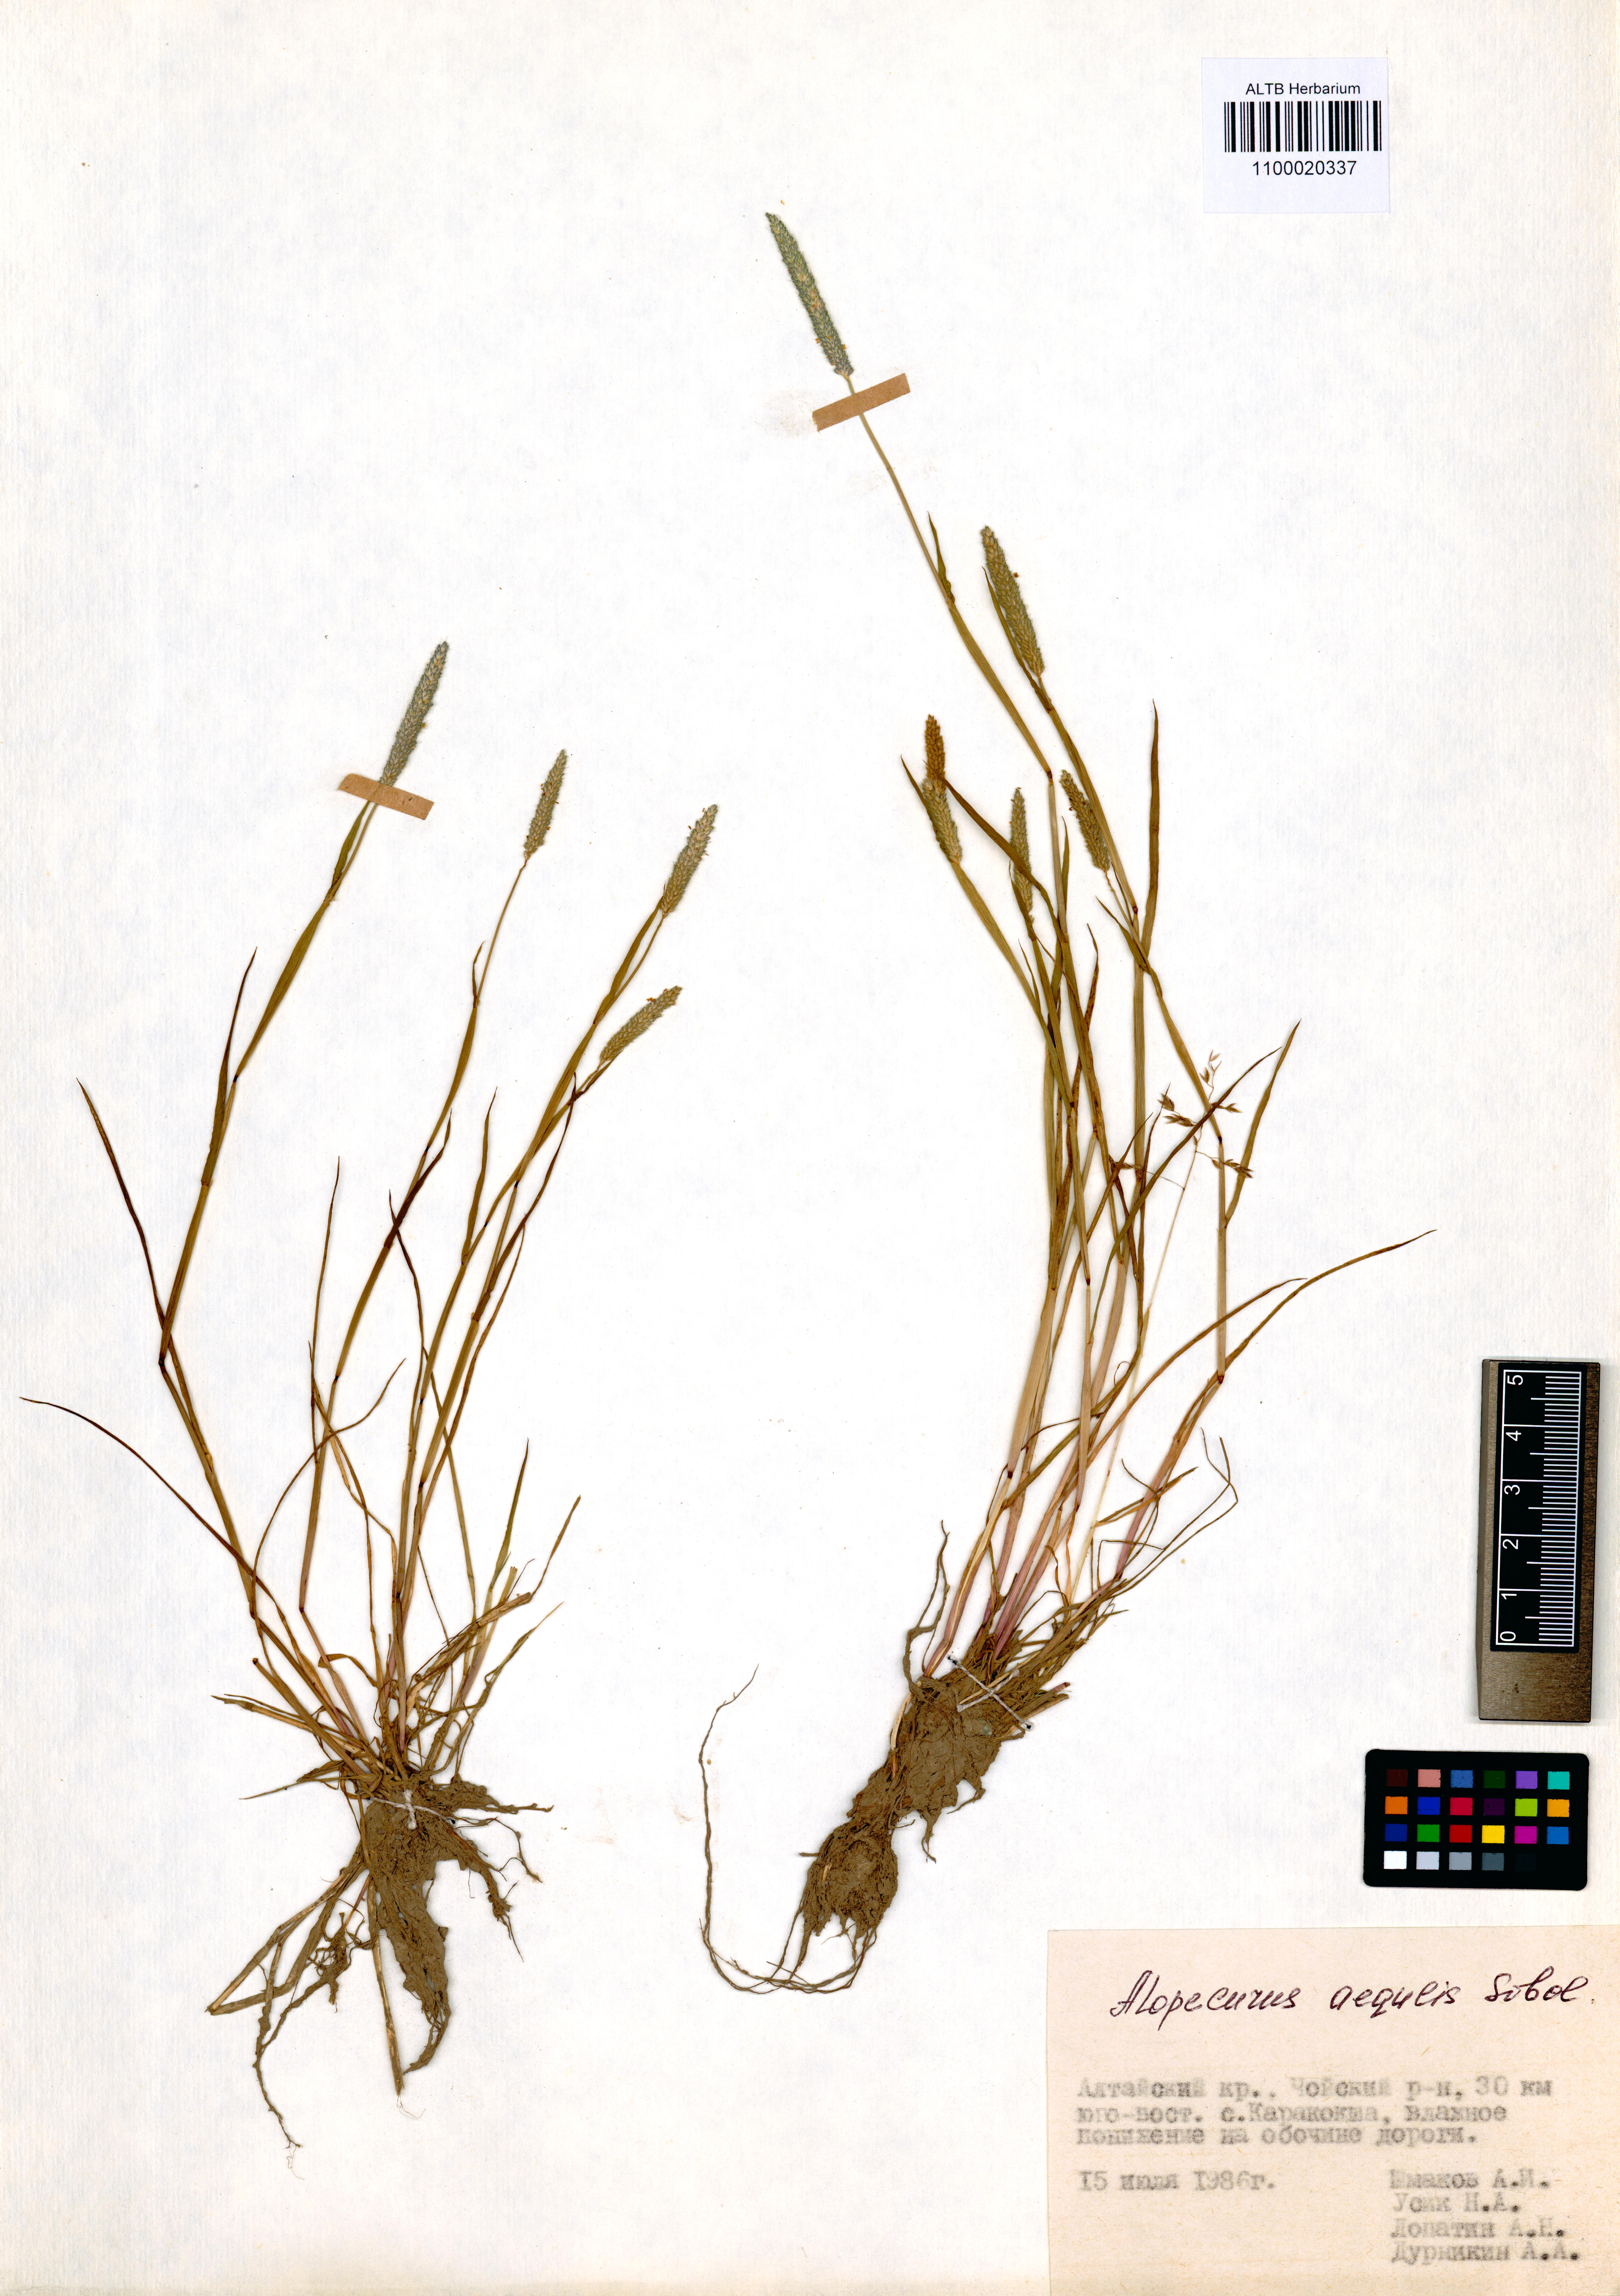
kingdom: Plantae
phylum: Tracheophyta
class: Liliopsida
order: Poales
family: Poaceae
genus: Alopecurus
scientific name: Alopecurus aequalis
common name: Orange foxtail
